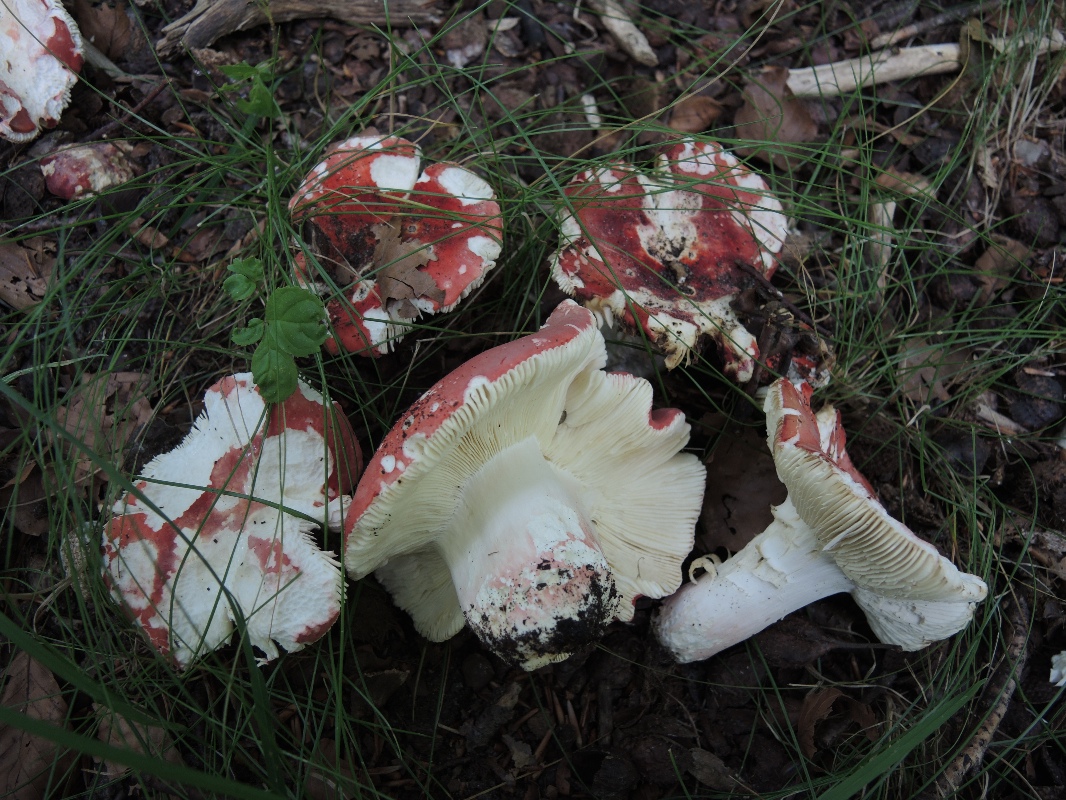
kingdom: Fungi
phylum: Basidiomycota
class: Agaricomycetes
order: Russulales
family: Russulaceae
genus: Russula
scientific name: Russula rosea
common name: fastkødet skørhat
